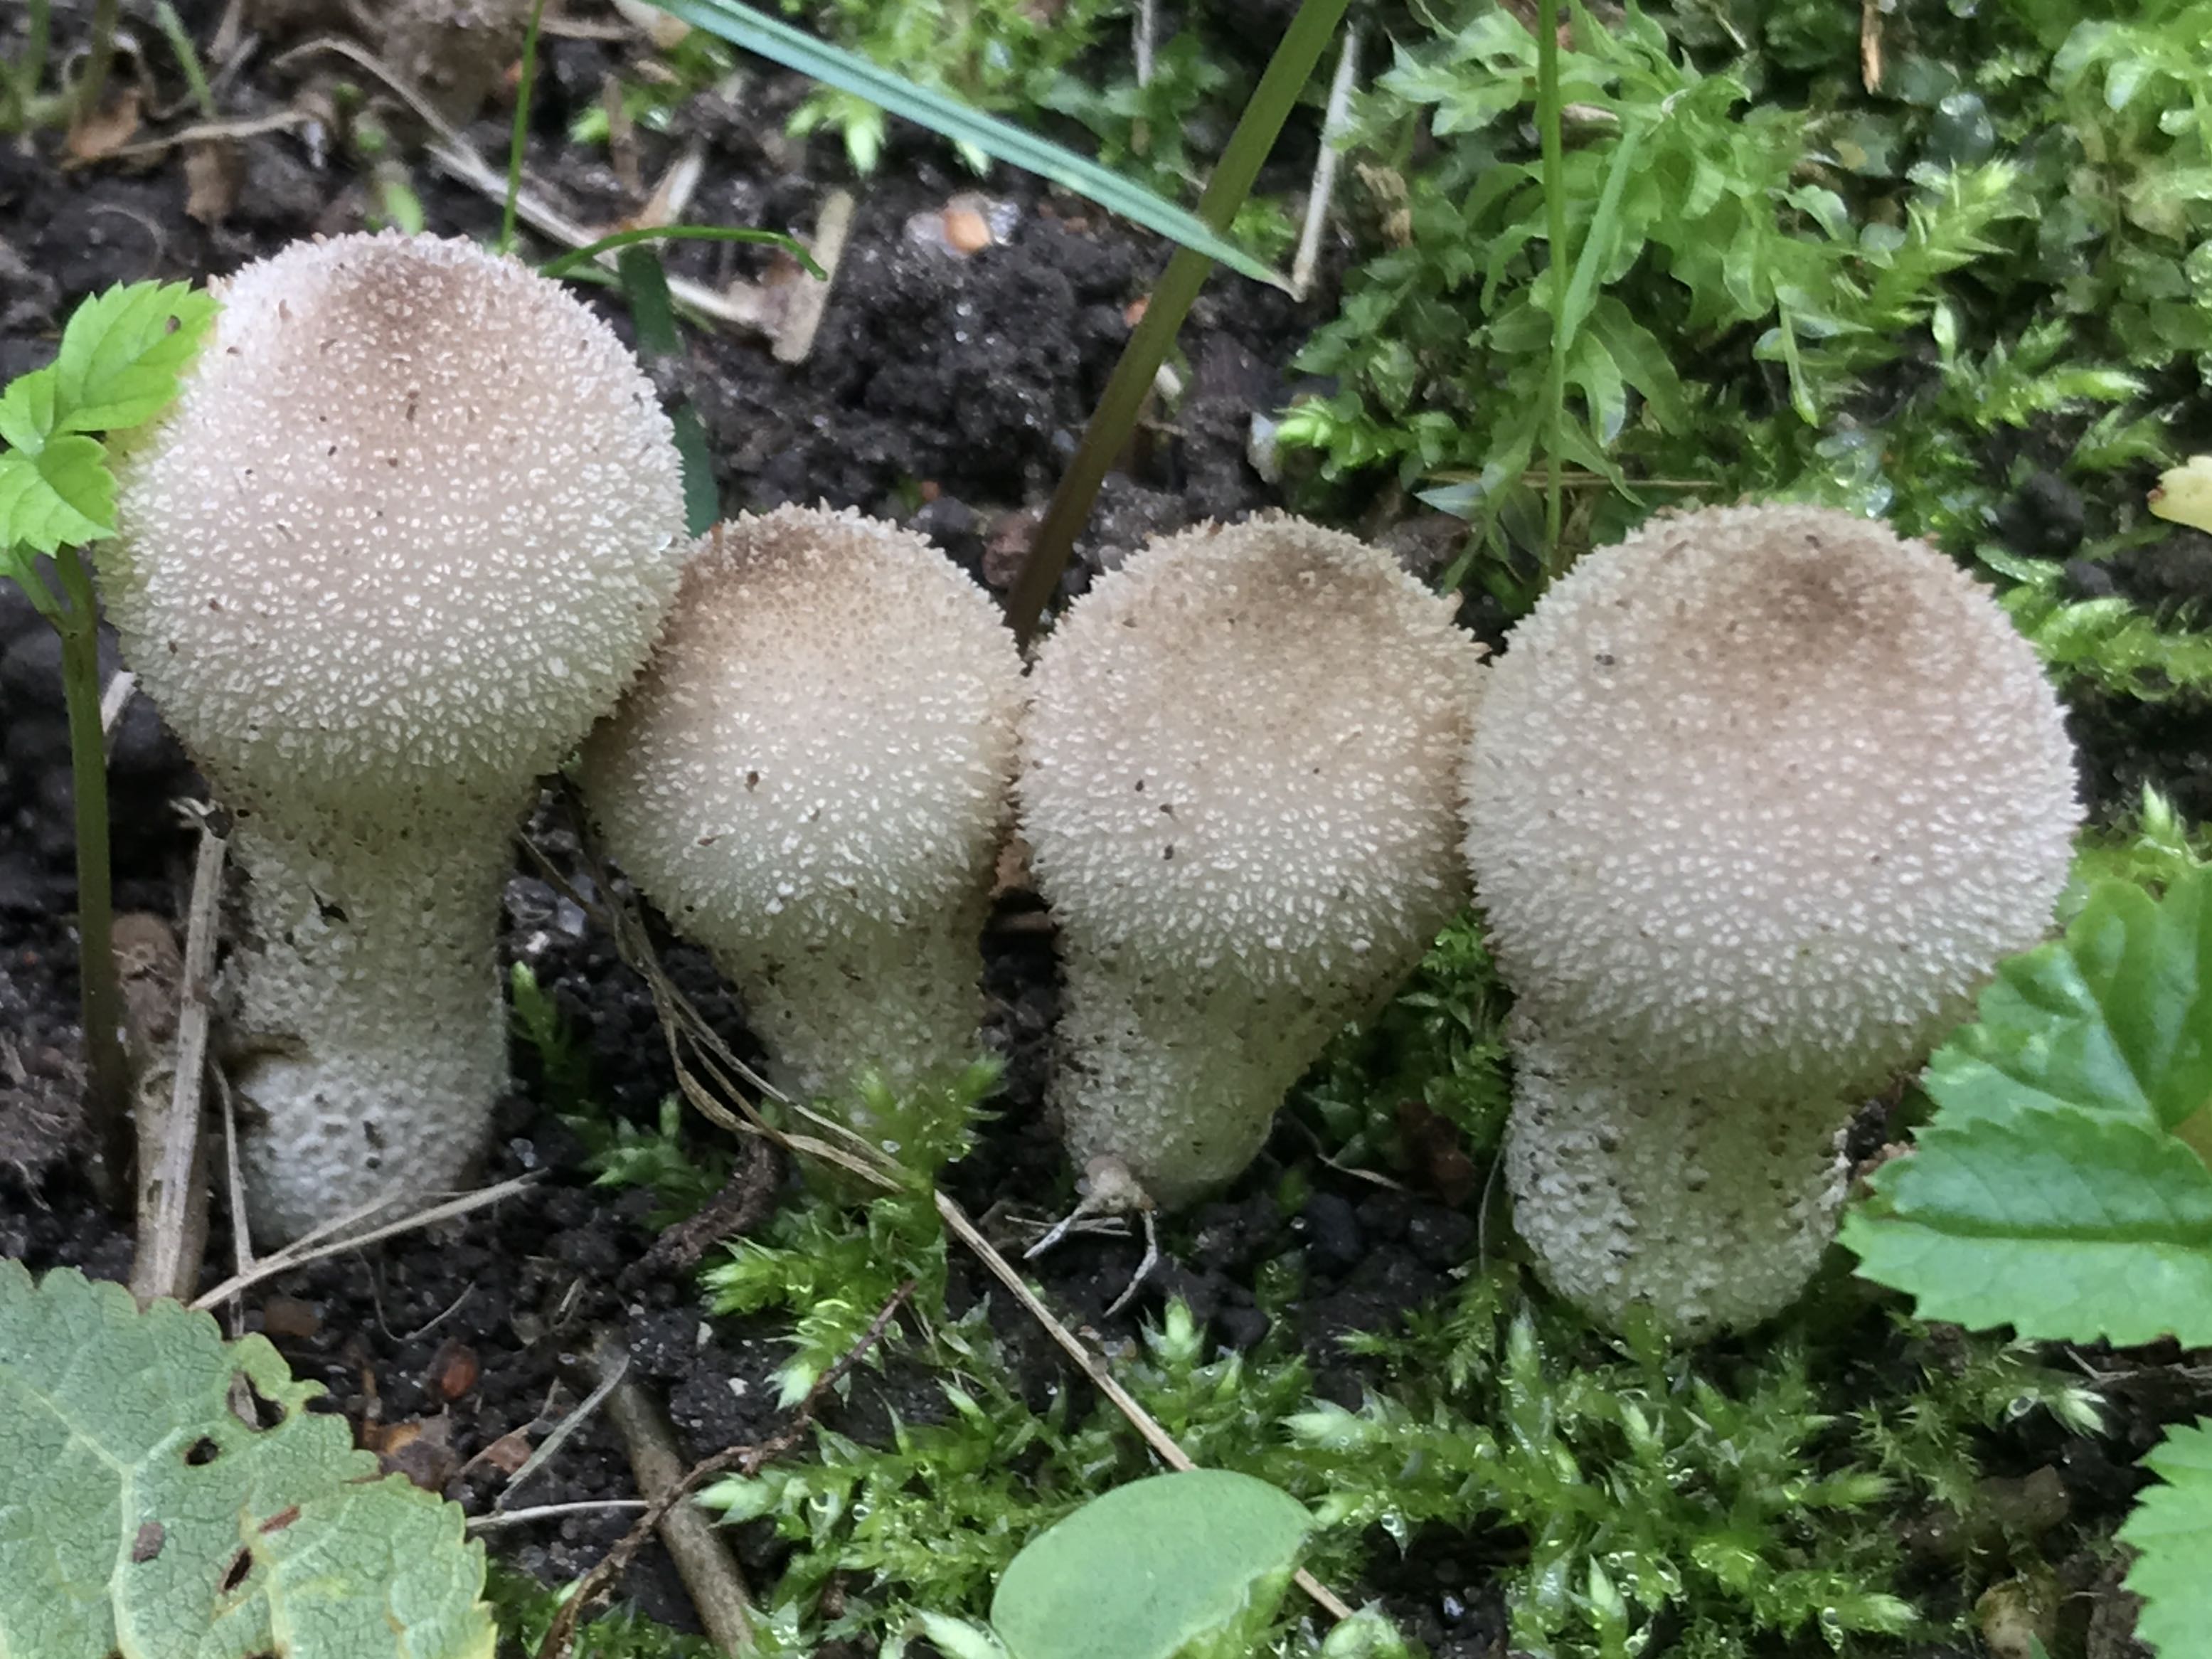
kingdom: Fungi
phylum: Basidiomycota
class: Agaricomycetes
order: Agaricales
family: Lycoperdaceae
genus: Lycoperdon
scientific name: Lycoperdon perlatum
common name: krystal-støvbold
